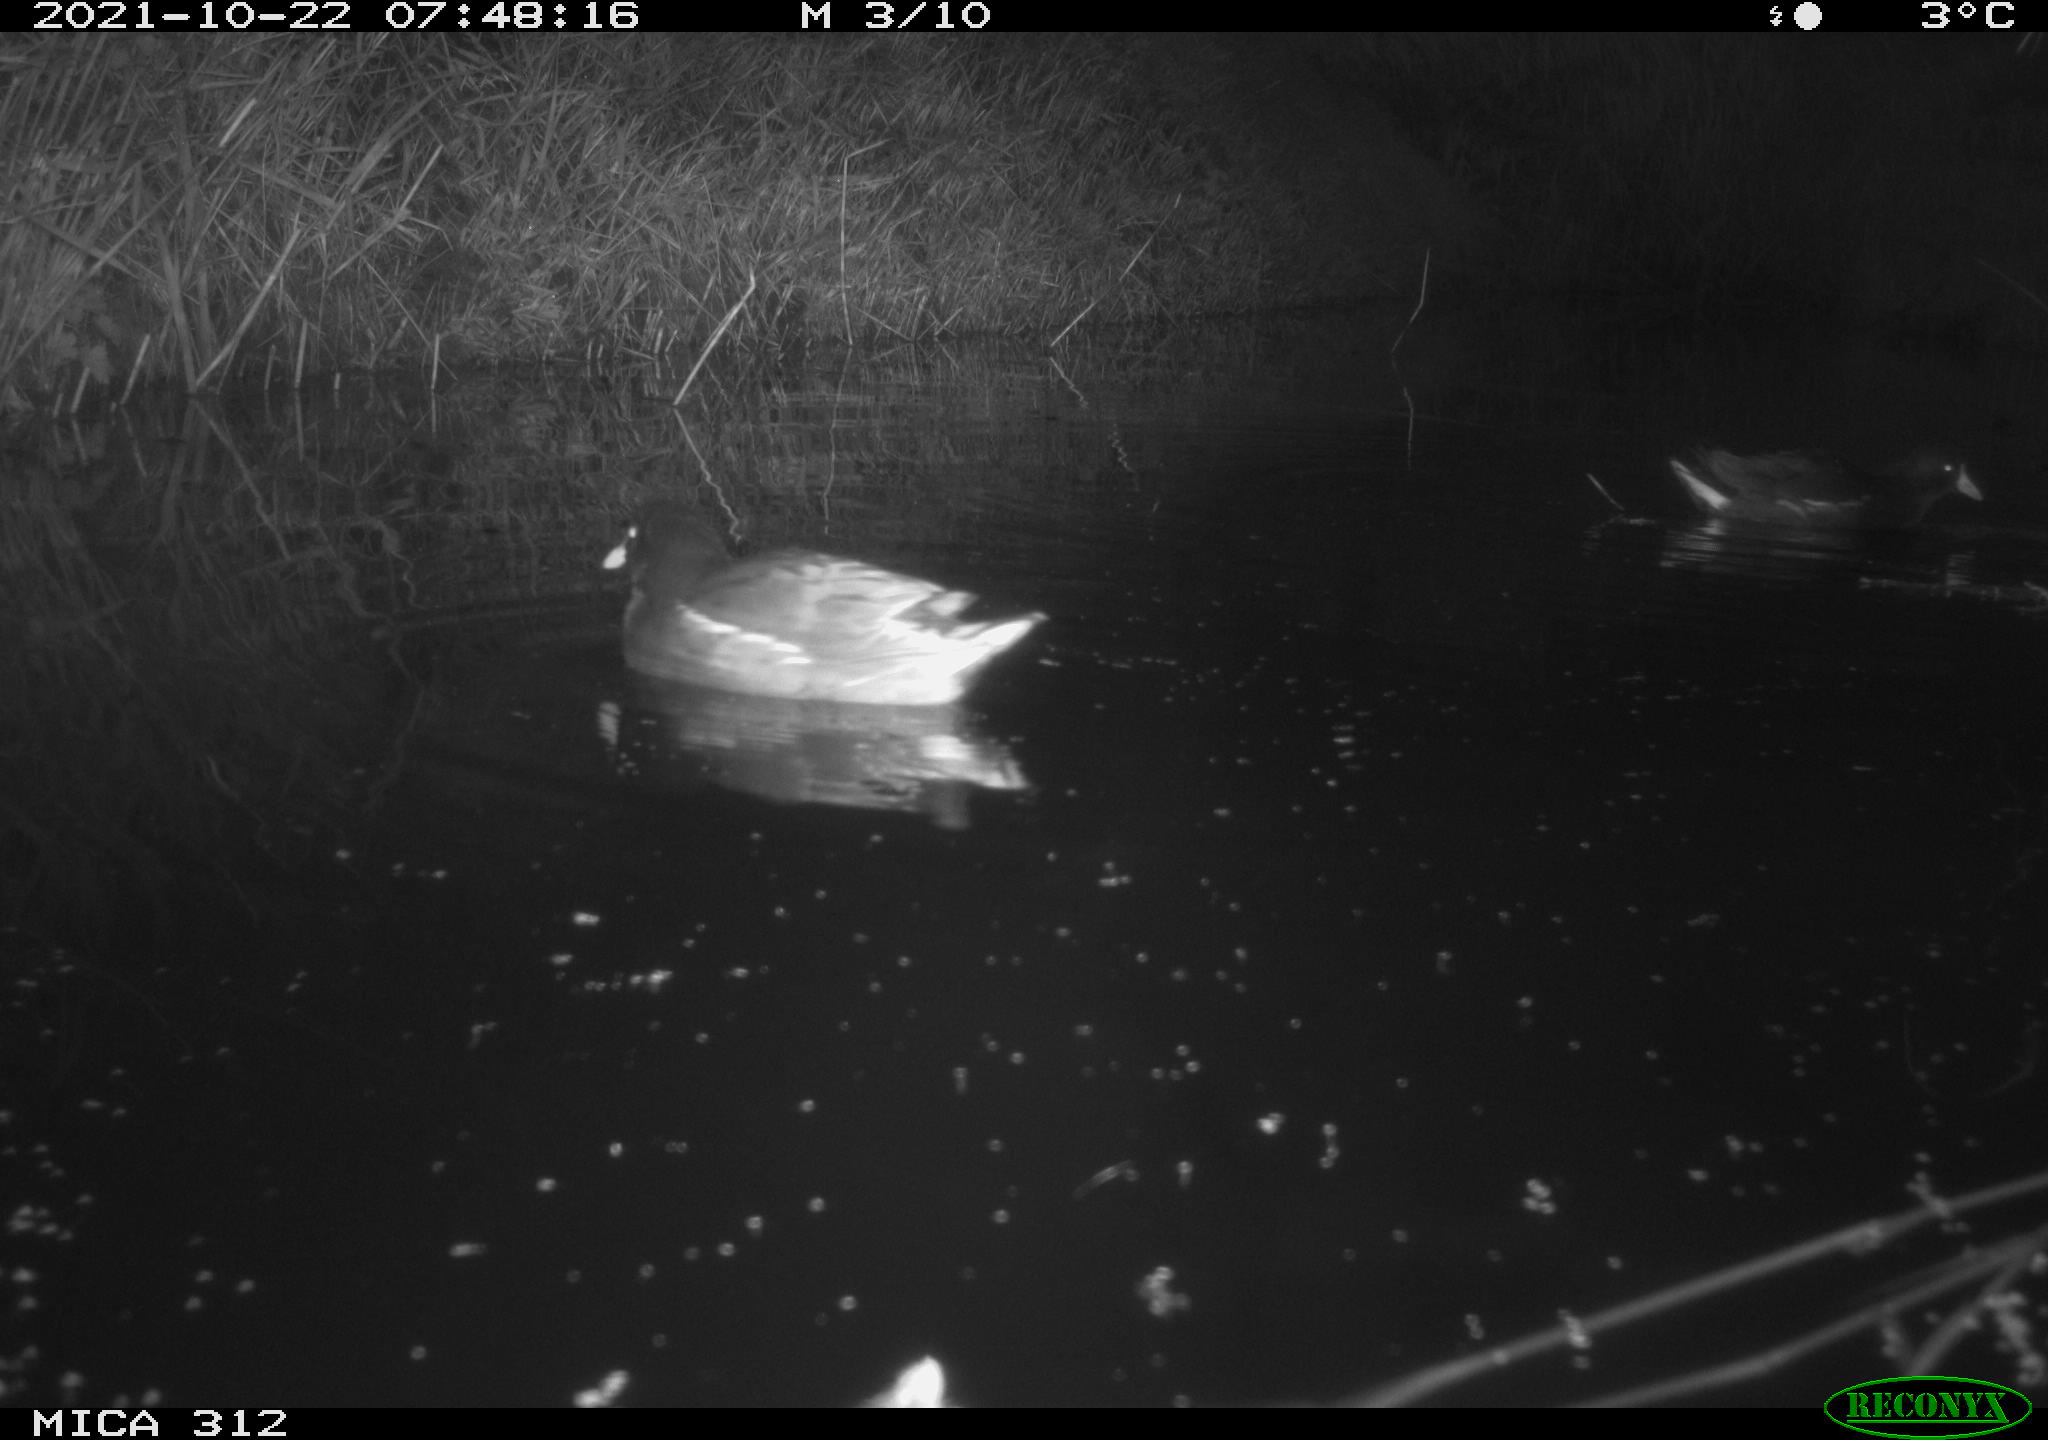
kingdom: Animalia
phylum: Chordata
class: Aves
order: Gruiformes
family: Rallidae
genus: Gallinula
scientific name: Gallinula chloropus
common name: Common moorhen
